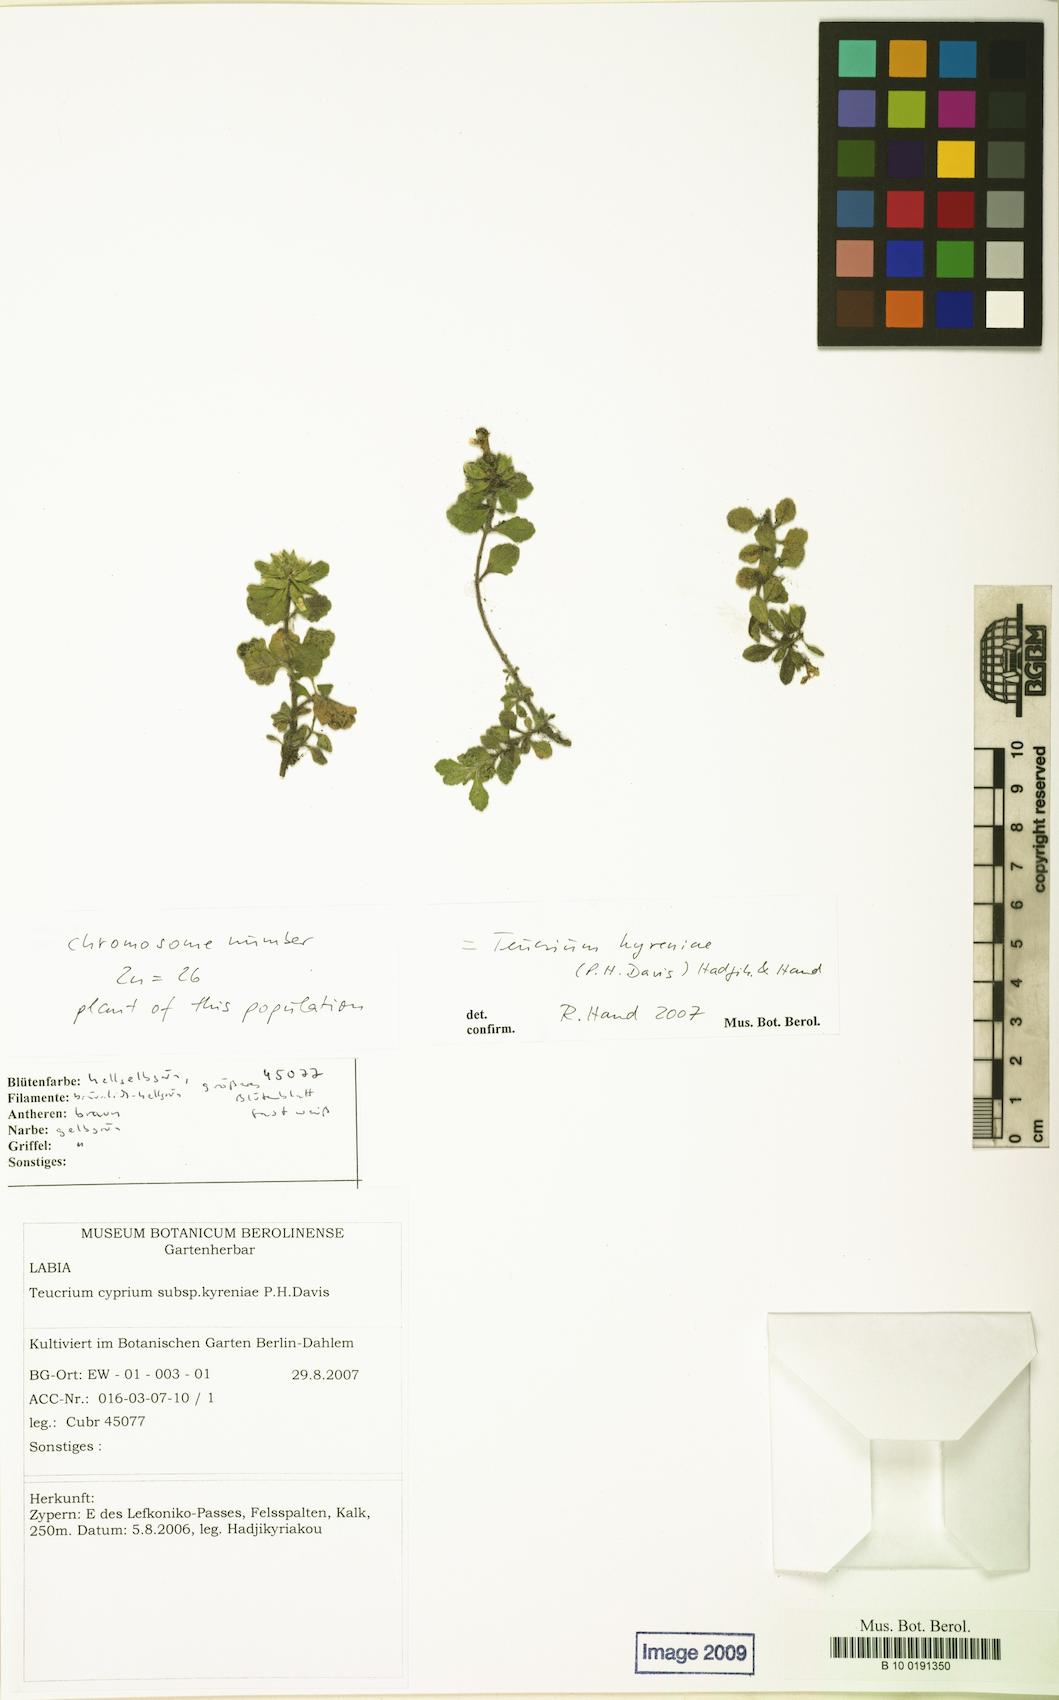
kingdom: Plantae
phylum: Tracheophyta
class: Magnoliopsida
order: Lamiales
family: Lamiaceae
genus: Teucrium
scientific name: Teucrium kyreniae
